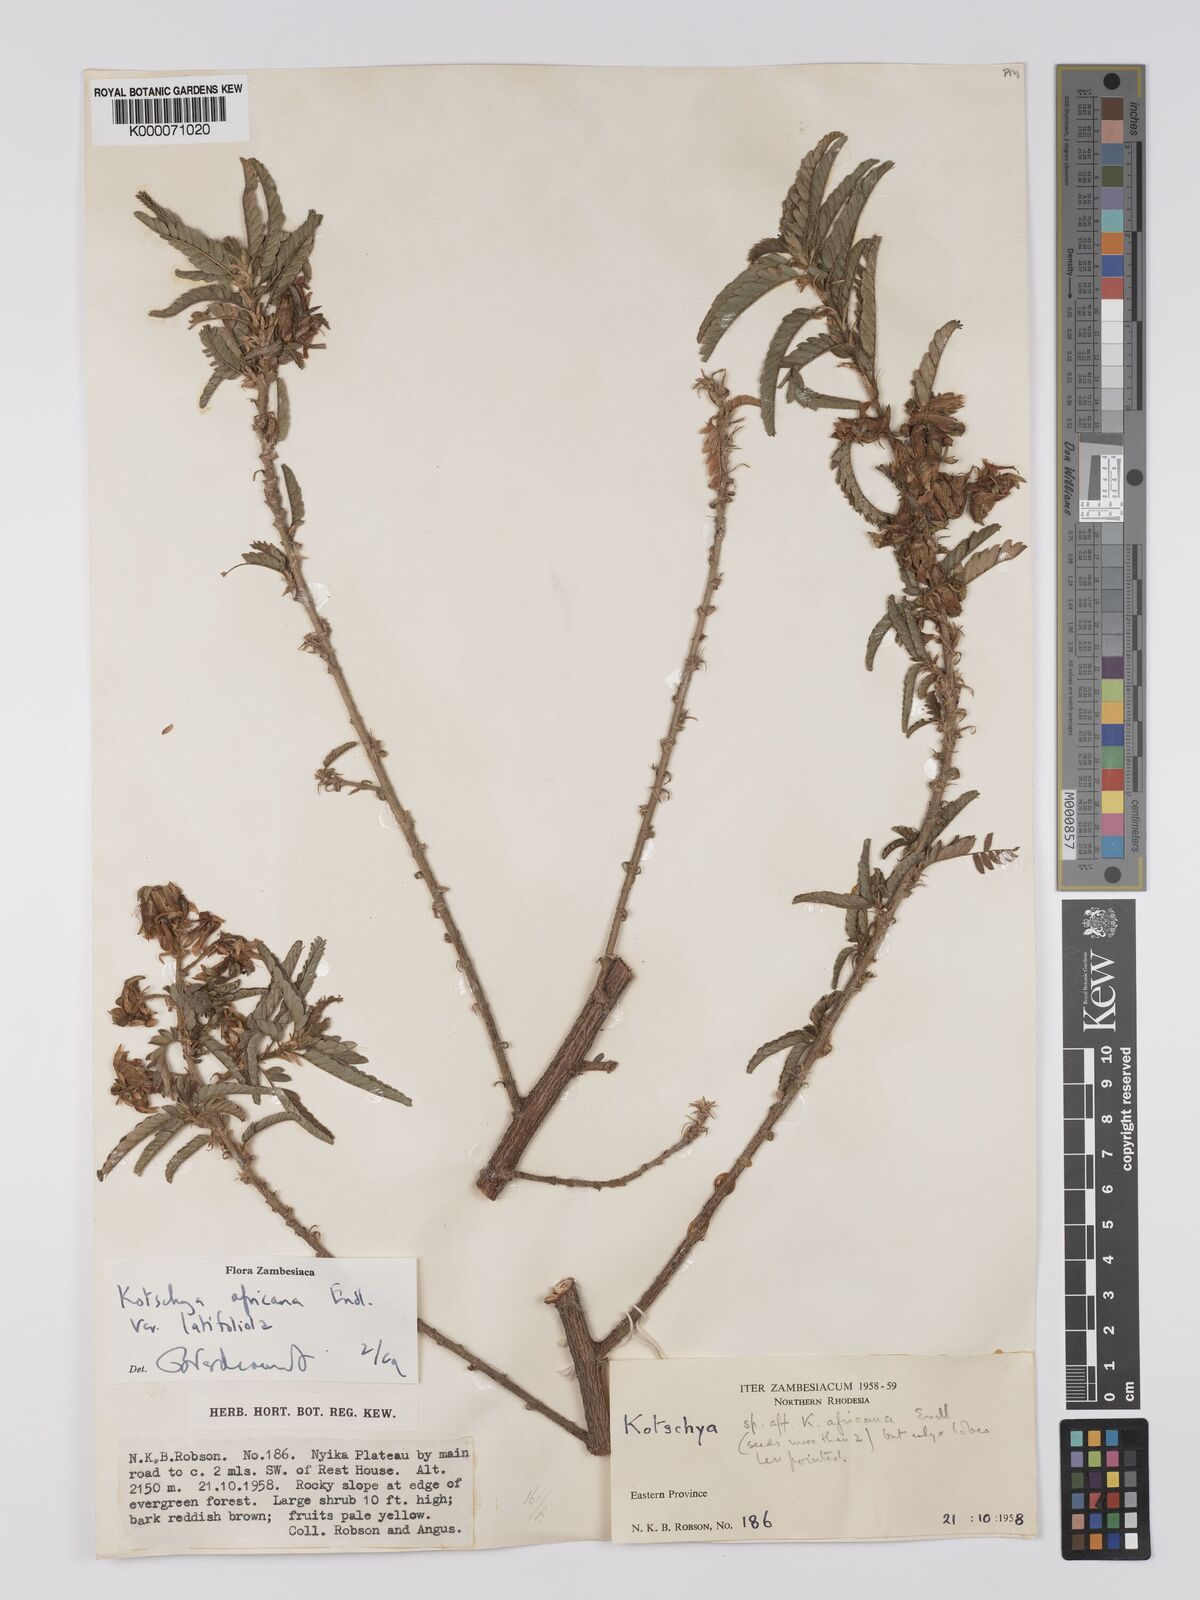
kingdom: Plantae
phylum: Tracheophyta
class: Magnoliopsida
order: Fabales
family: Fabaceae
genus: Kotschya
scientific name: Kotschya africana
